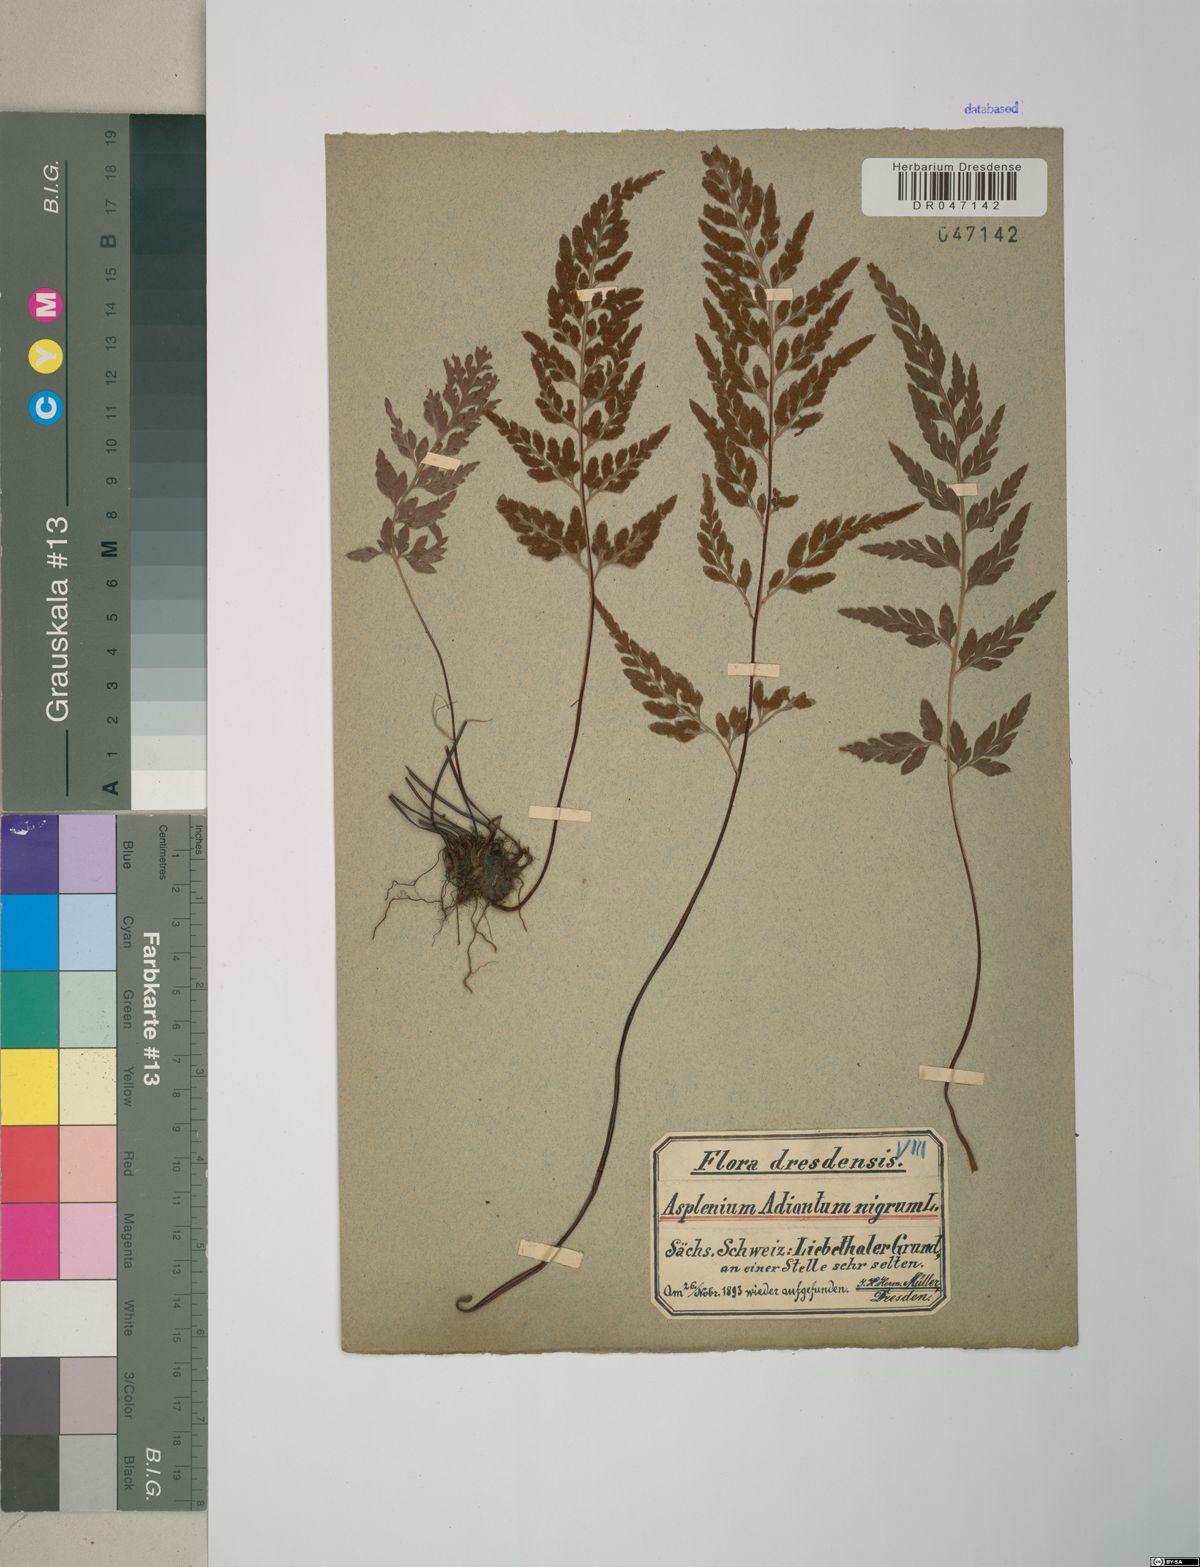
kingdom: Plantae
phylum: Tracheophyta
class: Polypodiopsida
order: Polypodiales
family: Aspleniaceae
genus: Asplenium
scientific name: Asplenium adiantum-nigrum
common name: Black spleenwort
